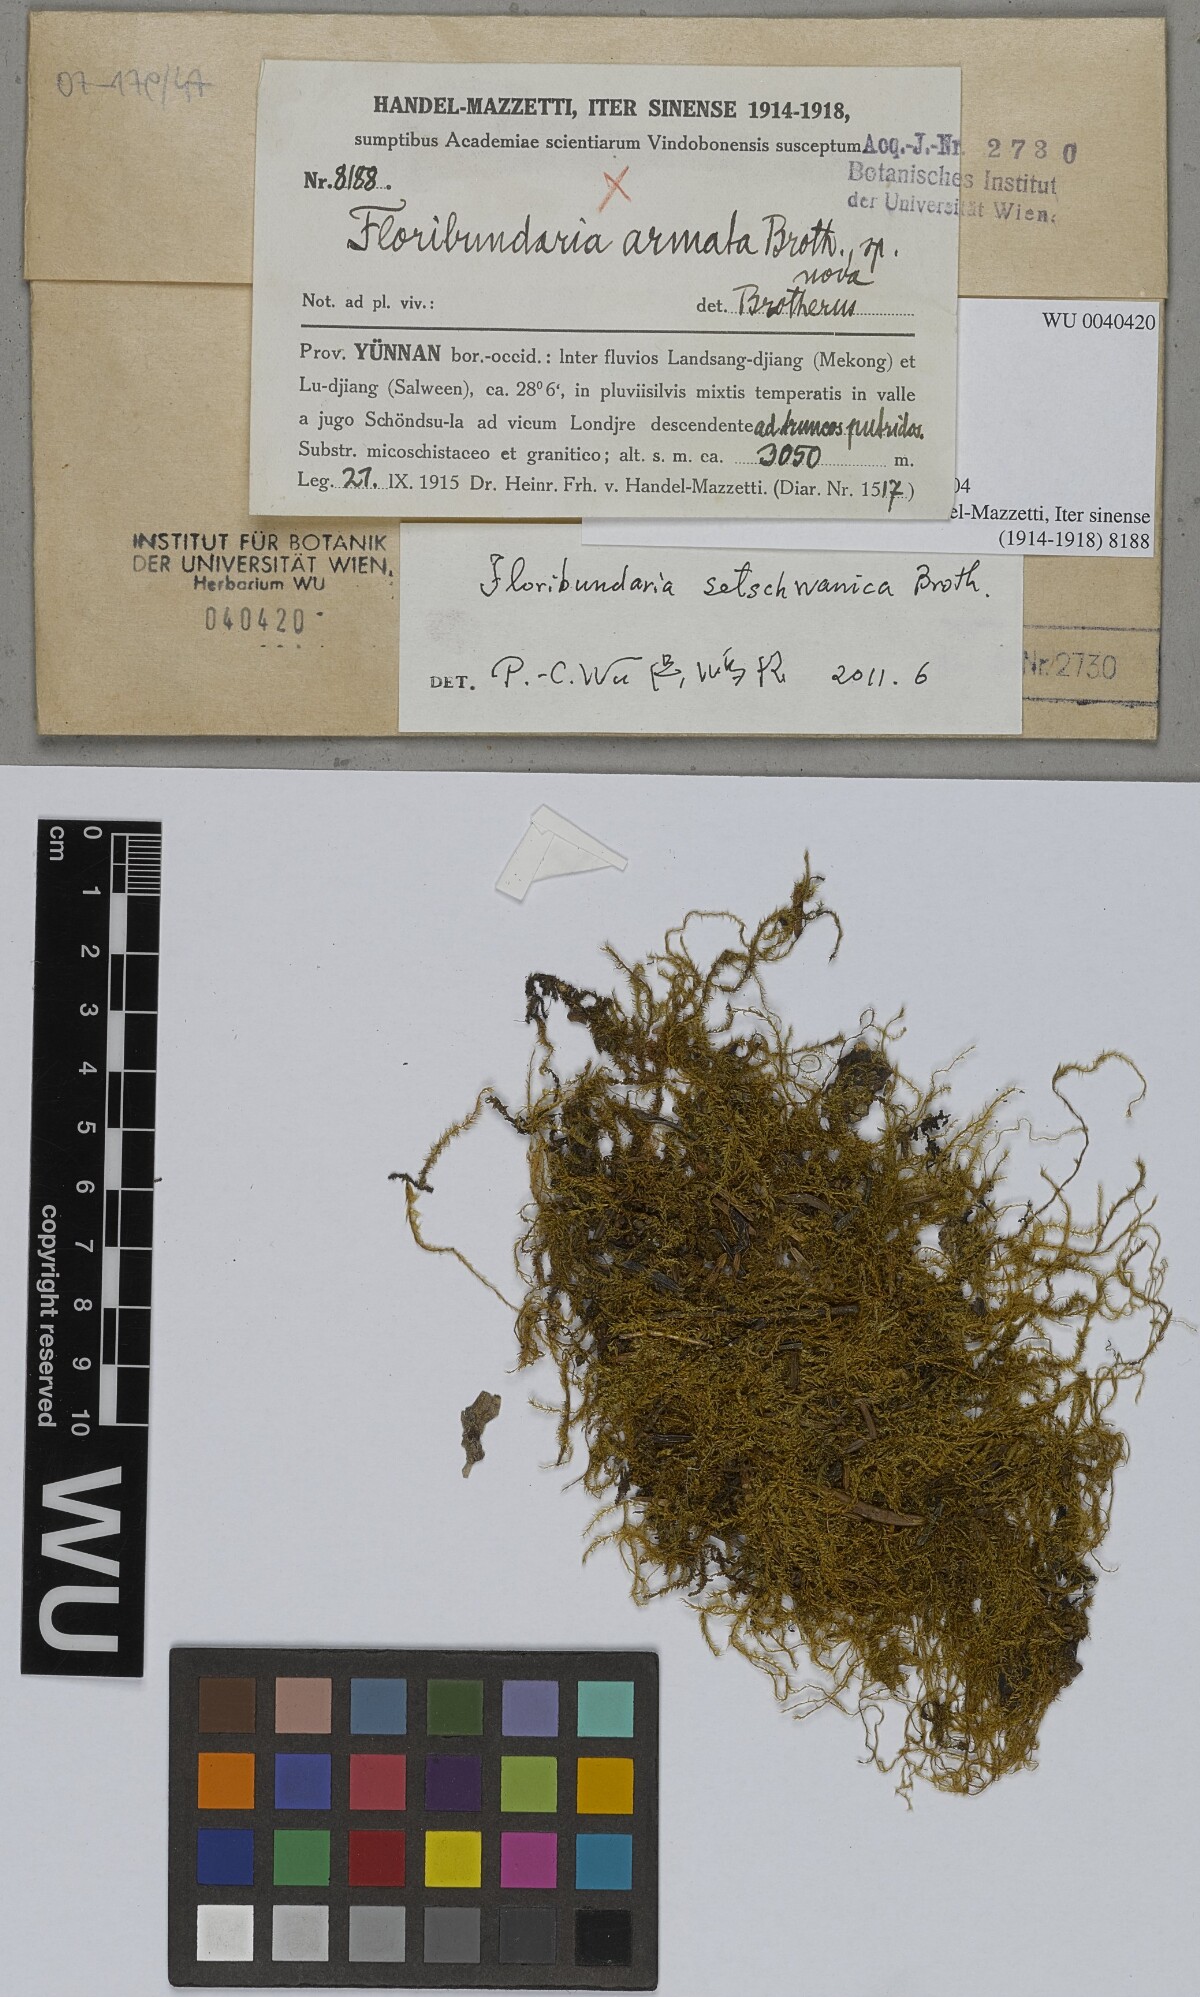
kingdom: Plantae
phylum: Bryophyta
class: Bryopsida
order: Hypnales
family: Meteoriaceae
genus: Floribundaria
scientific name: Floribundaria setschwanica
